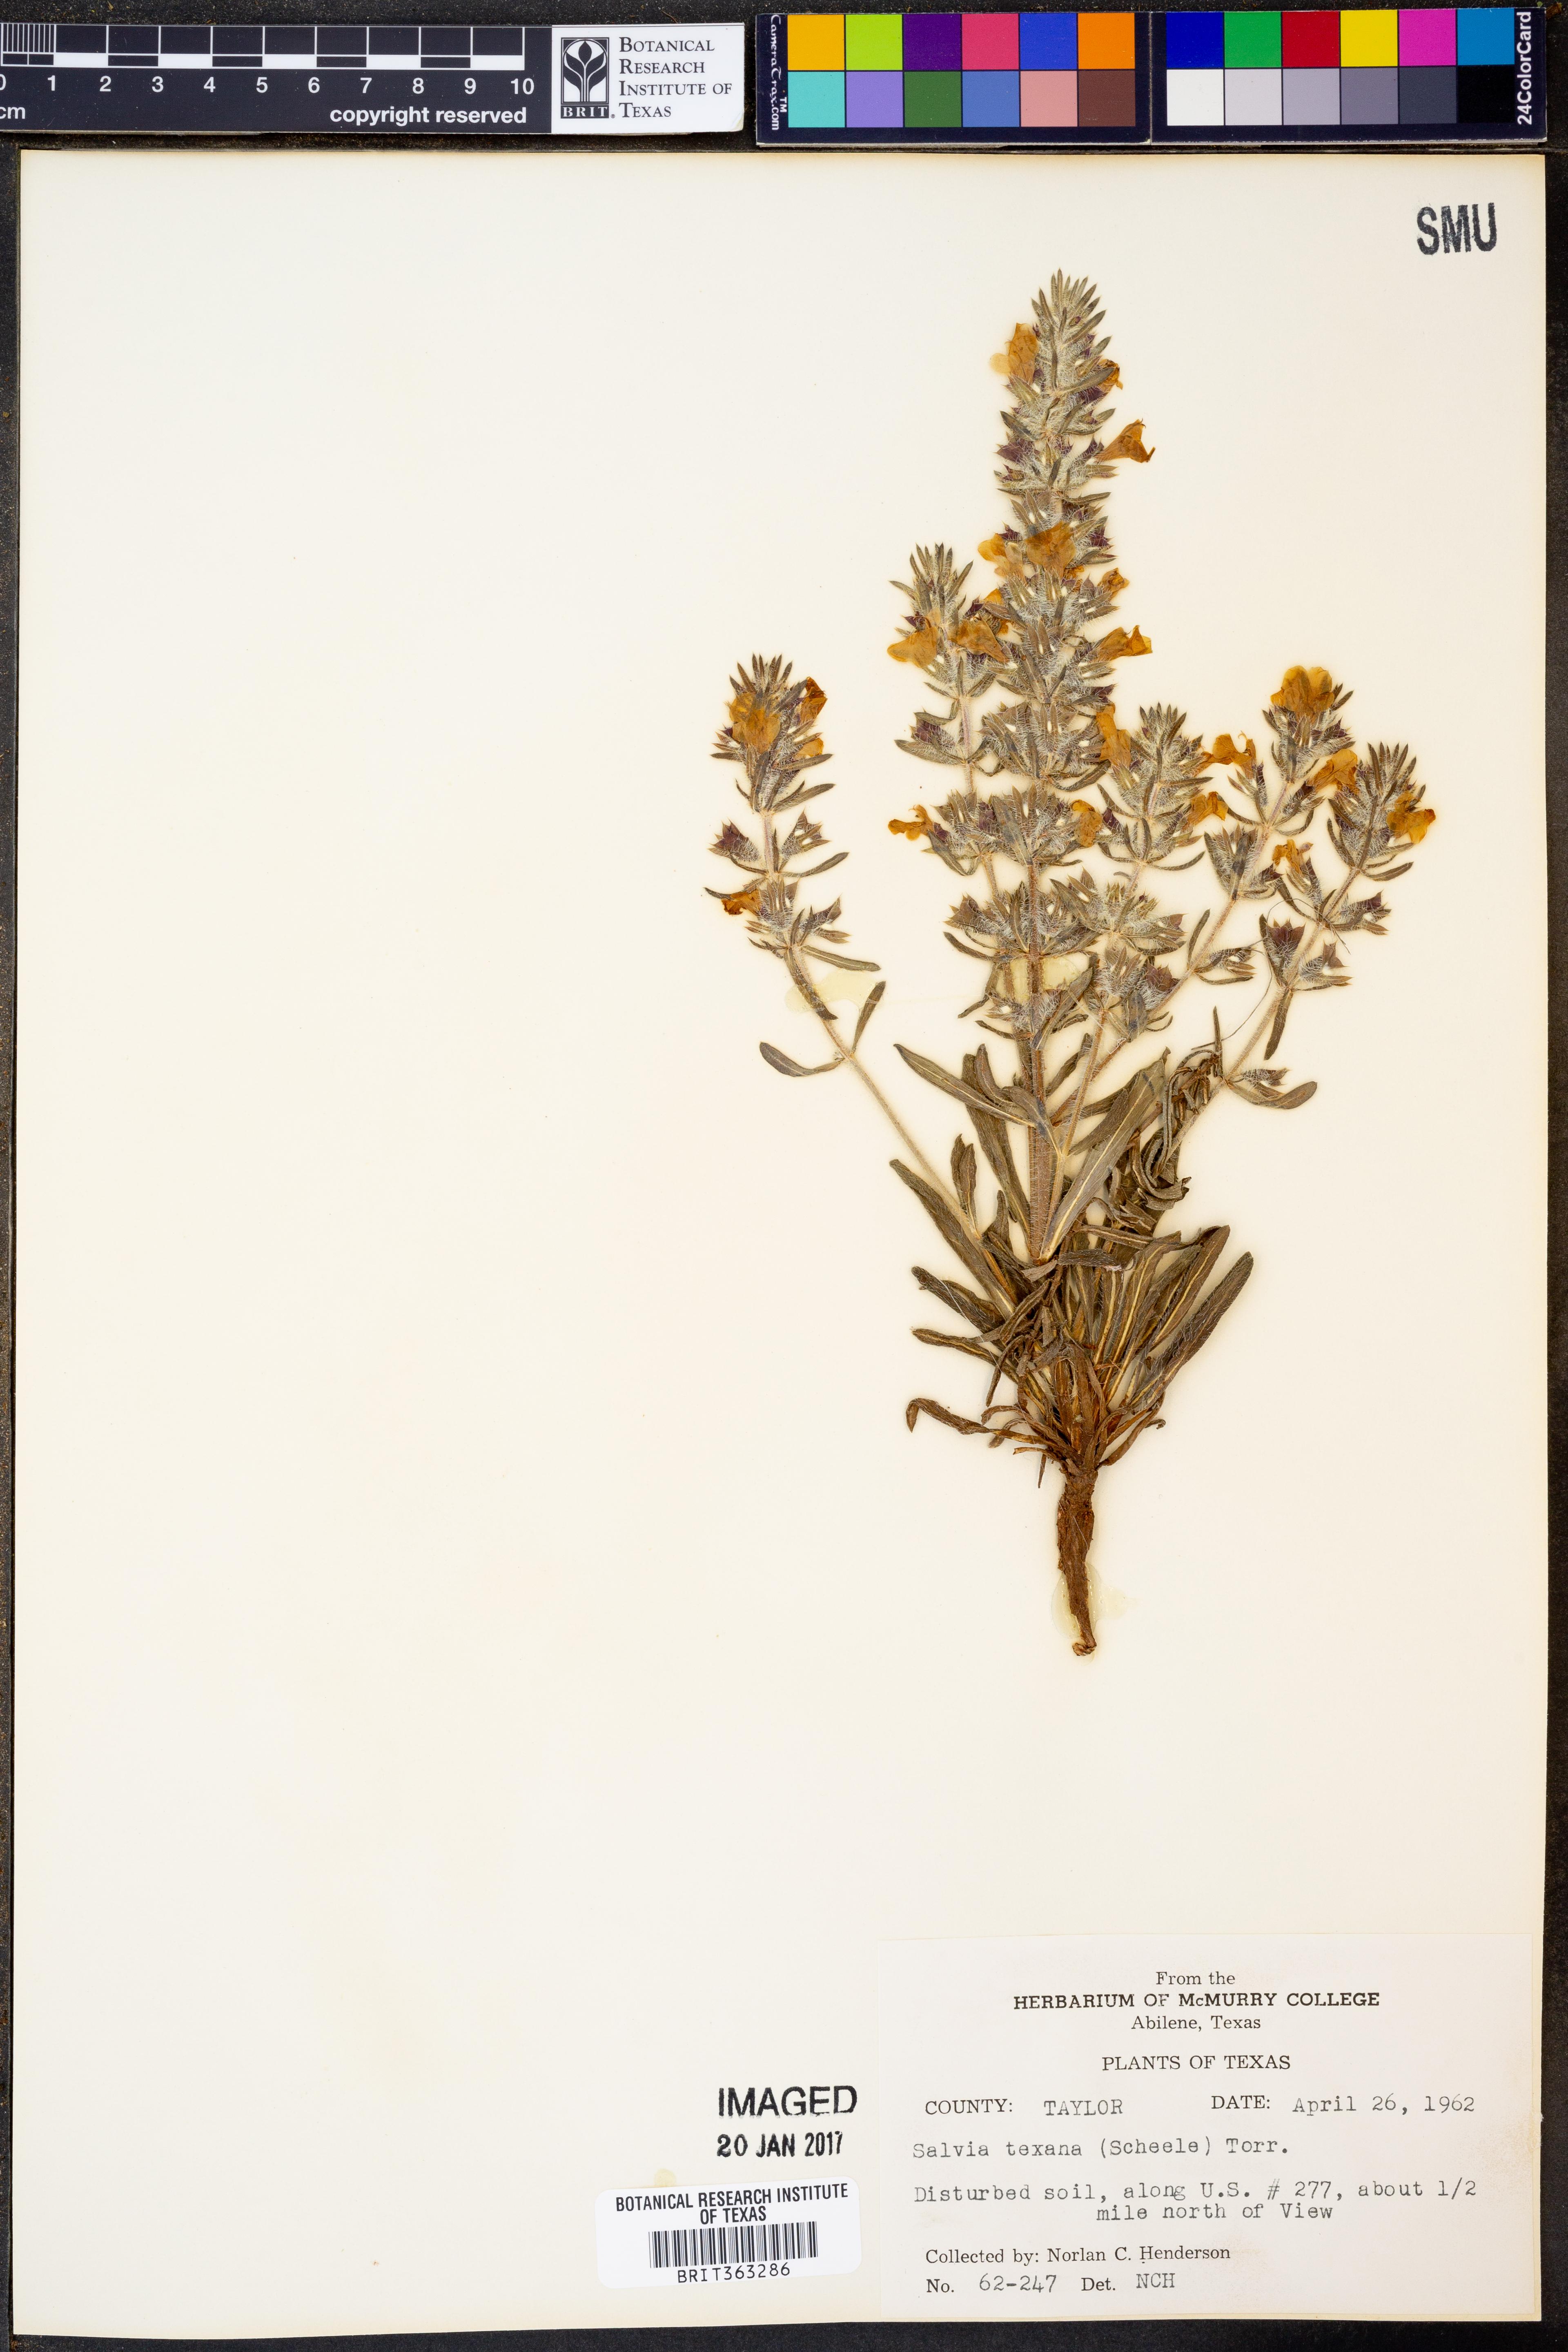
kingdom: Plantae
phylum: Tracheophyta
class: Magnoliopsida
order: Lamiales
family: Lamiaceae
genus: Salvia
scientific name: Salvia texana
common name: Texas sage
